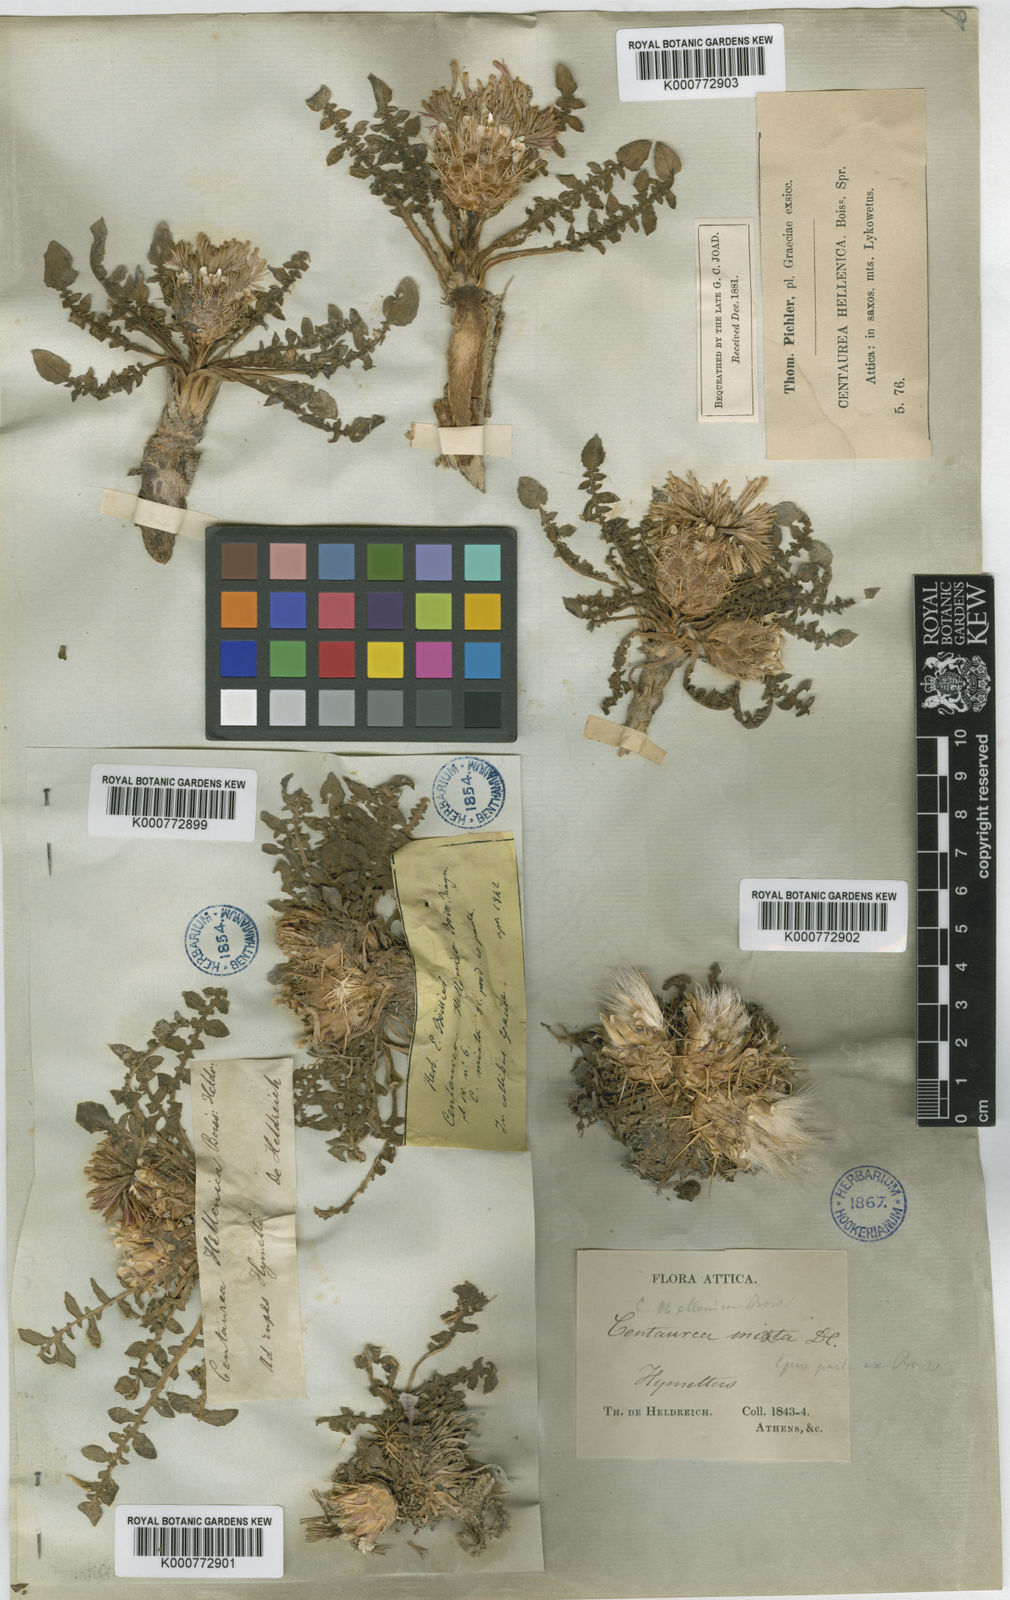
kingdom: Plantae
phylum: Tracheophyta
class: Magnoliopsida
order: Asterales
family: Asteraceae
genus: Centaurea
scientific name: Centaurea raphanina
